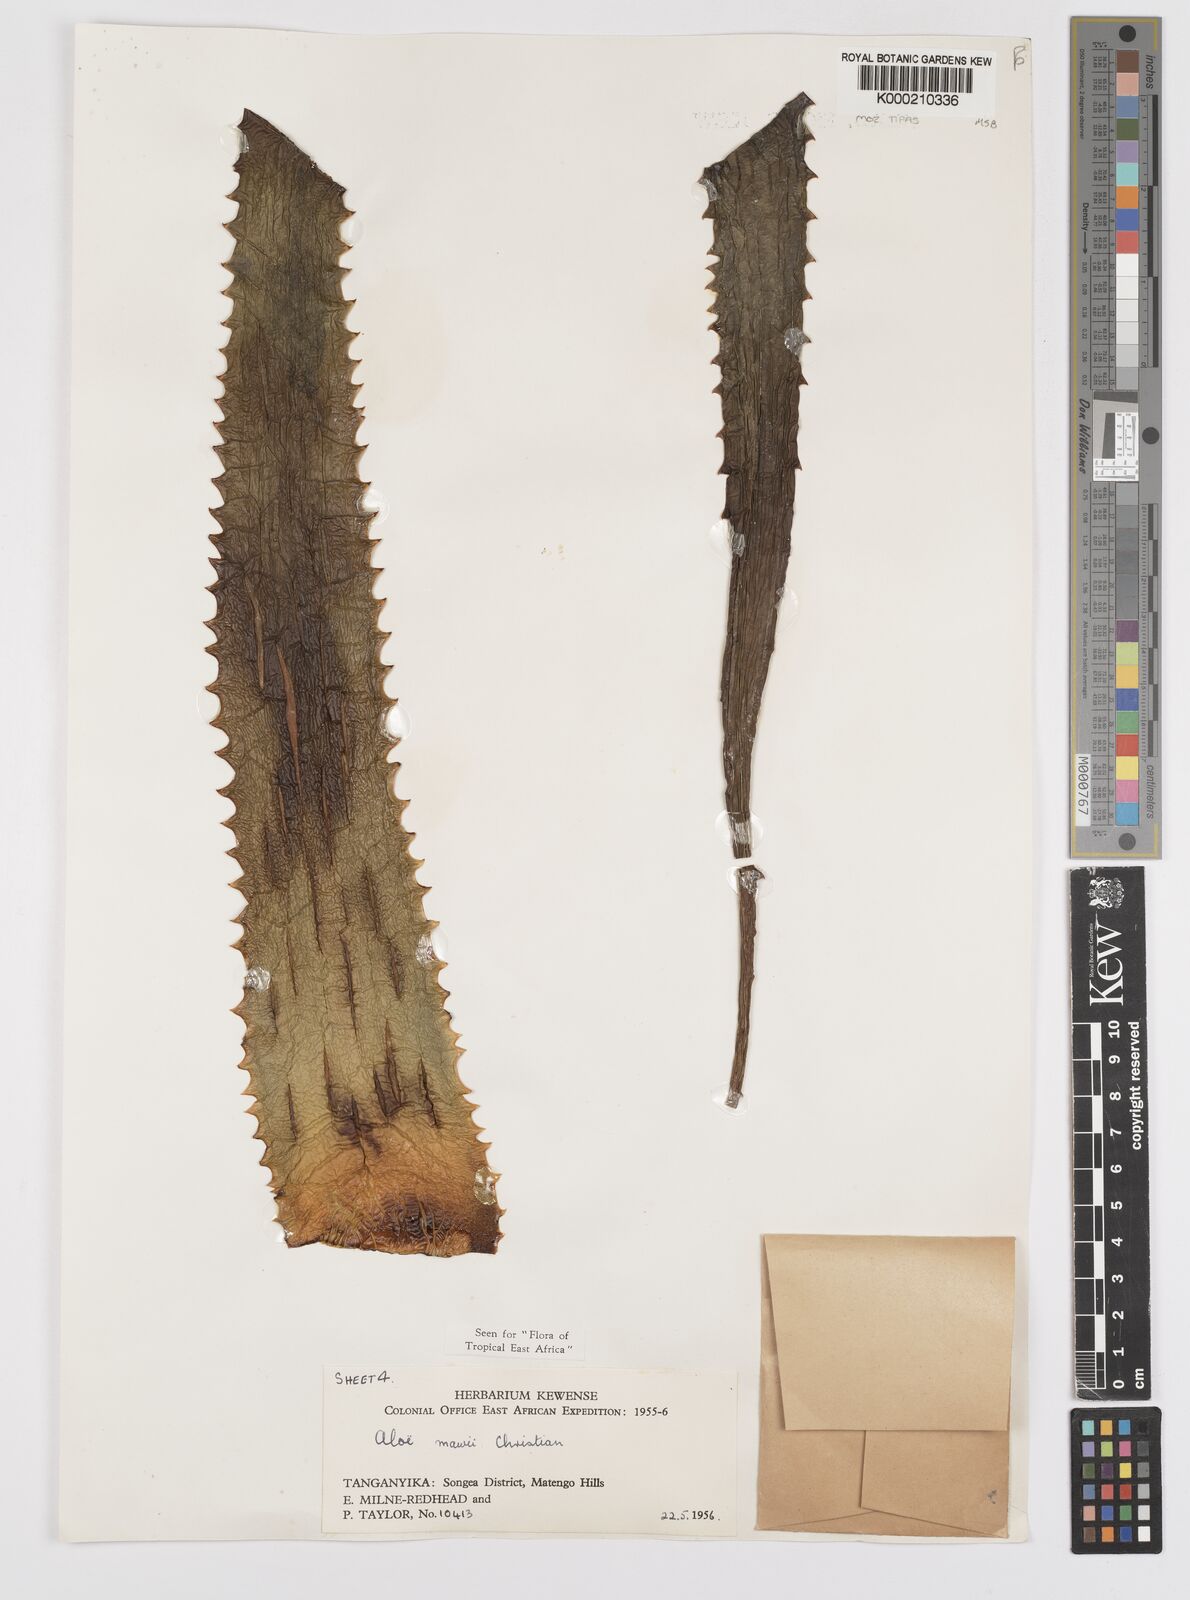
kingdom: Plantae
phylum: Tracheophyta
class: Liliopsida
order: Asparagales
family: Asphodelaceae
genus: Aloe
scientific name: Aloe mawii
